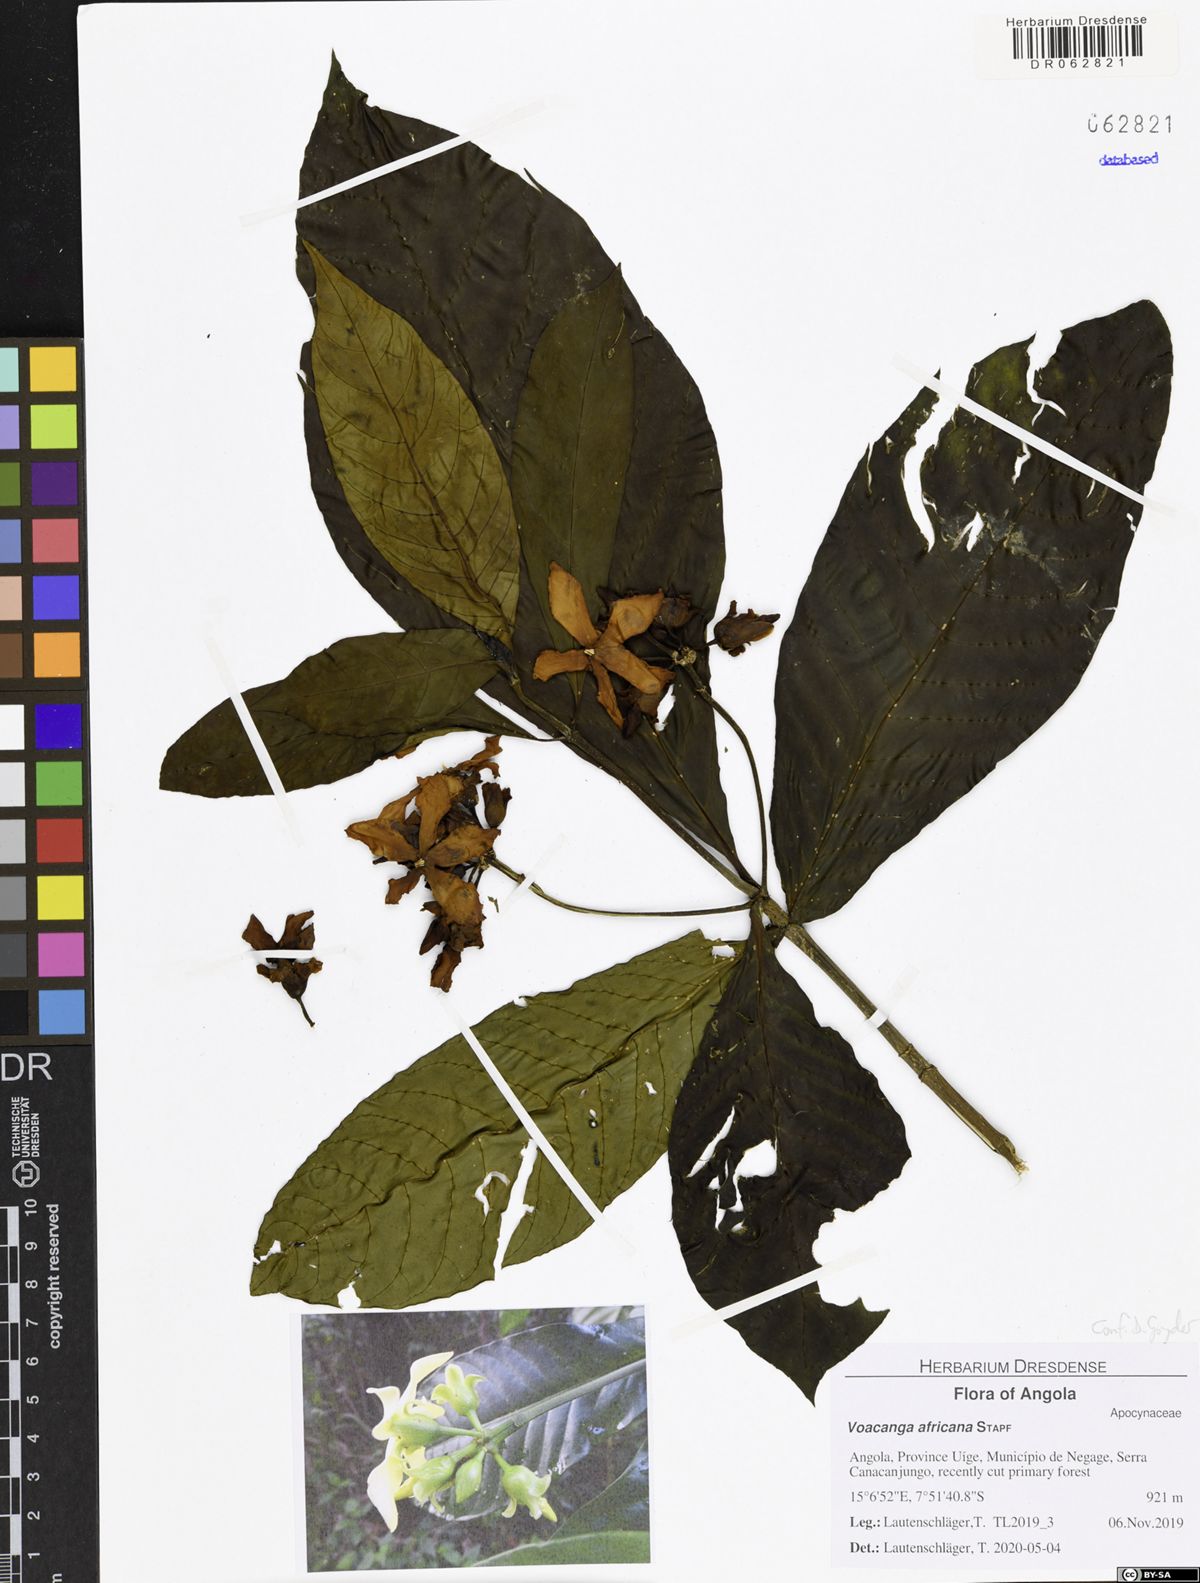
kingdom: Plantae
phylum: Tracheophyta
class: Magnoliopsida
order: Gentianales
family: Apocynaceae
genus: Voacanga
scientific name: Voacanga africana
